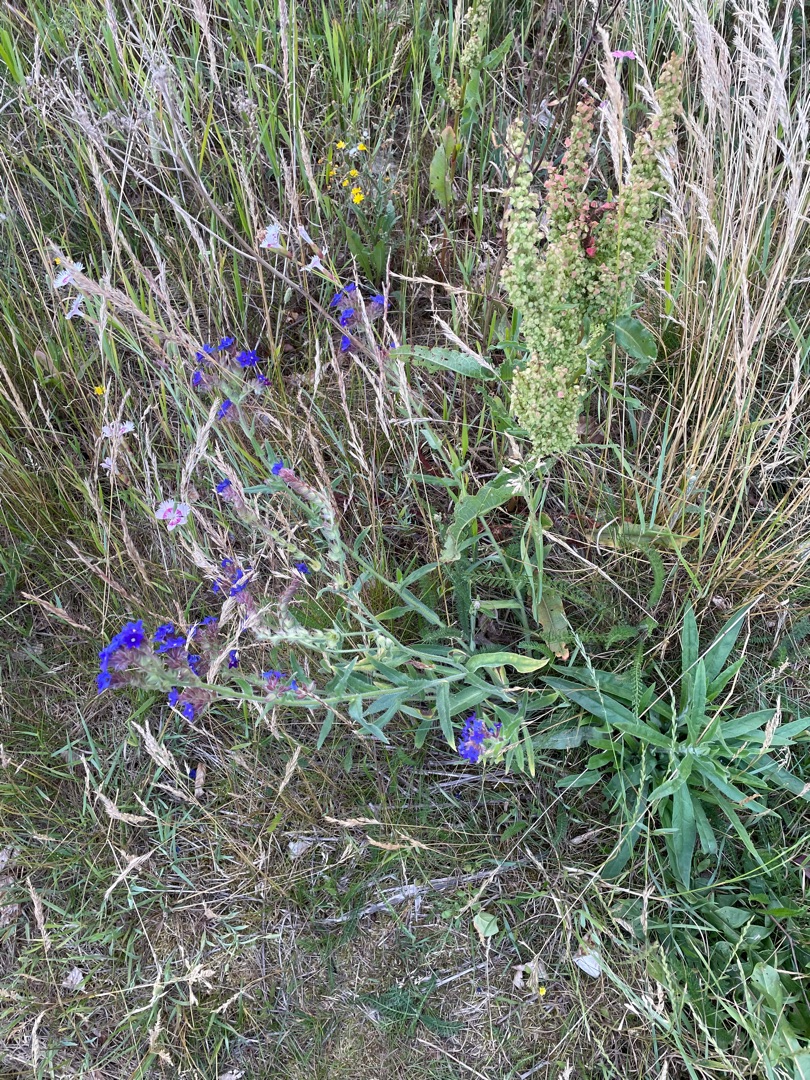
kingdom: Plantae
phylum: Tracheophyta
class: Magnoliopsida
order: Boraginales
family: Boraginaceae
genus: Anchusa
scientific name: Anchusa officinalis
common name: Læge-oksetunge
